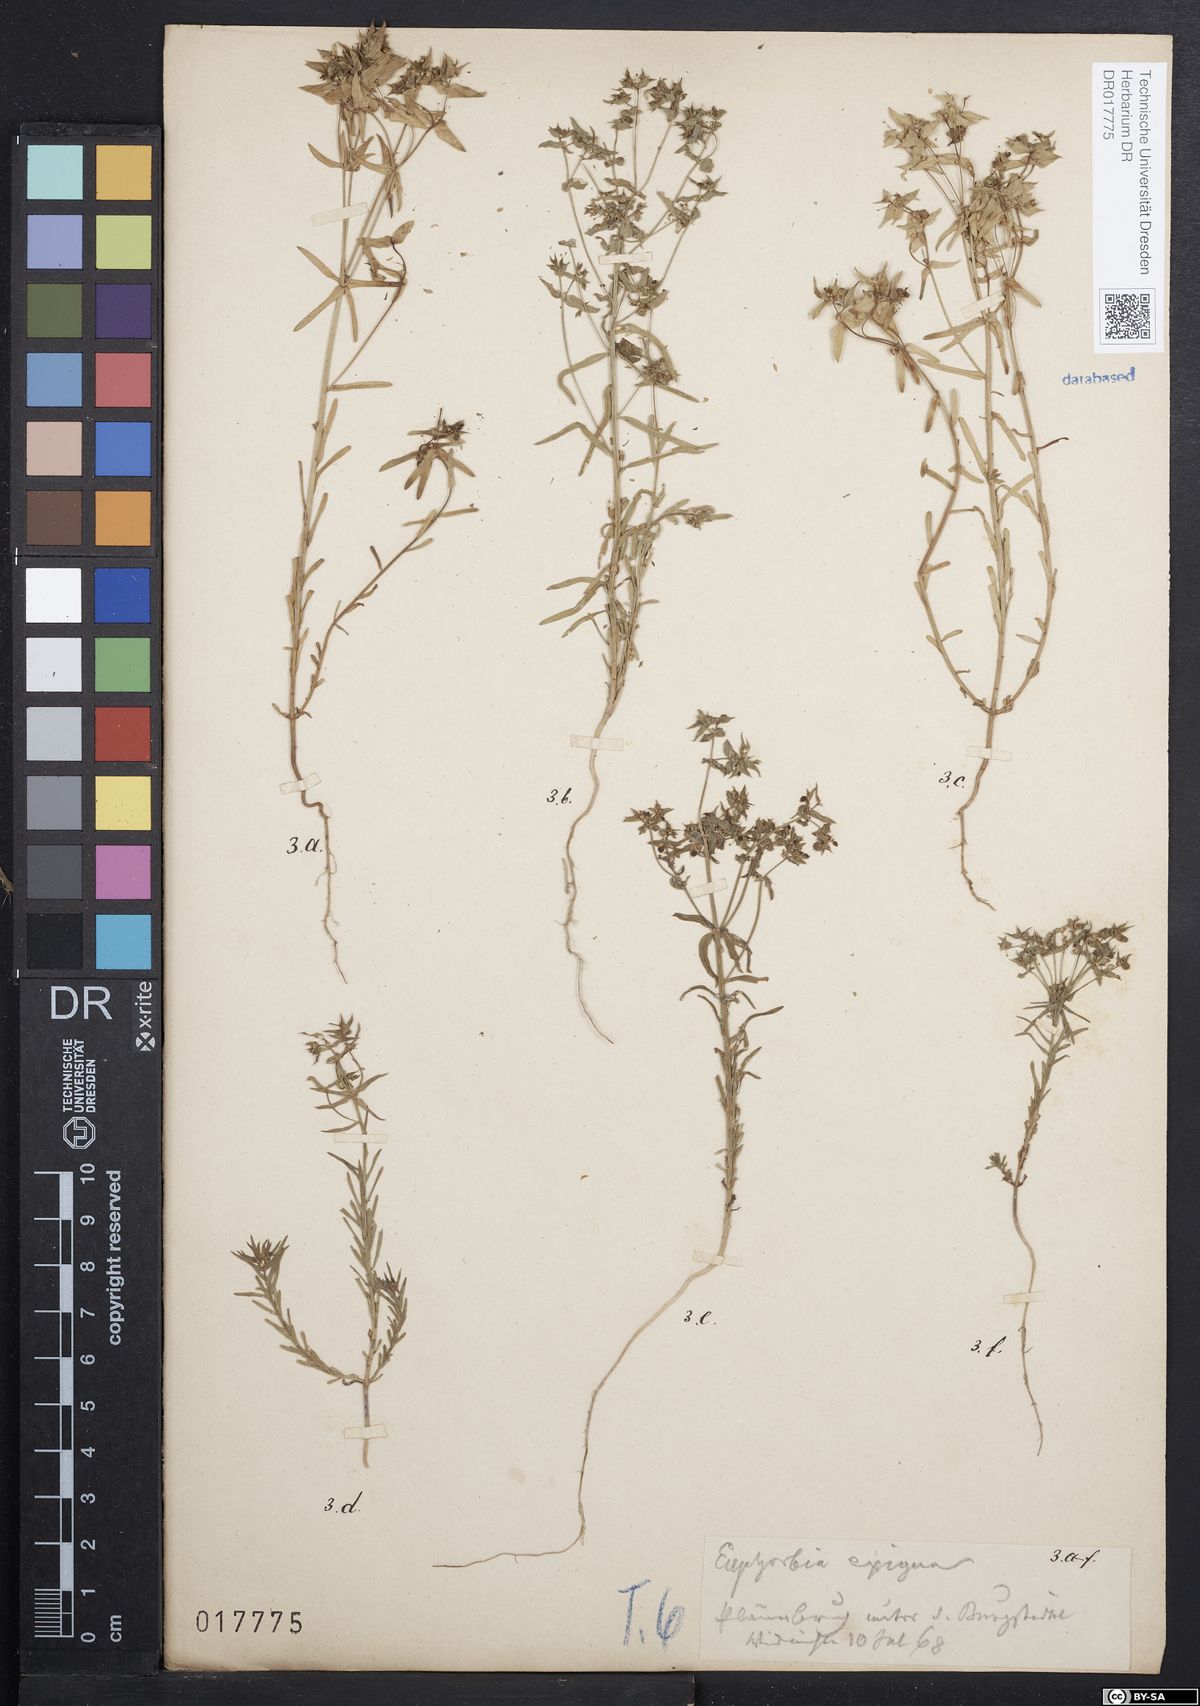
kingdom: Plantae
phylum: Tracheophyta
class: Magnoliopsida
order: Malpighiales
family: Euphorbiaceae
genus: Euphorbia
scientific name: Euphorbia exigua
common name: Dwarf spurge
